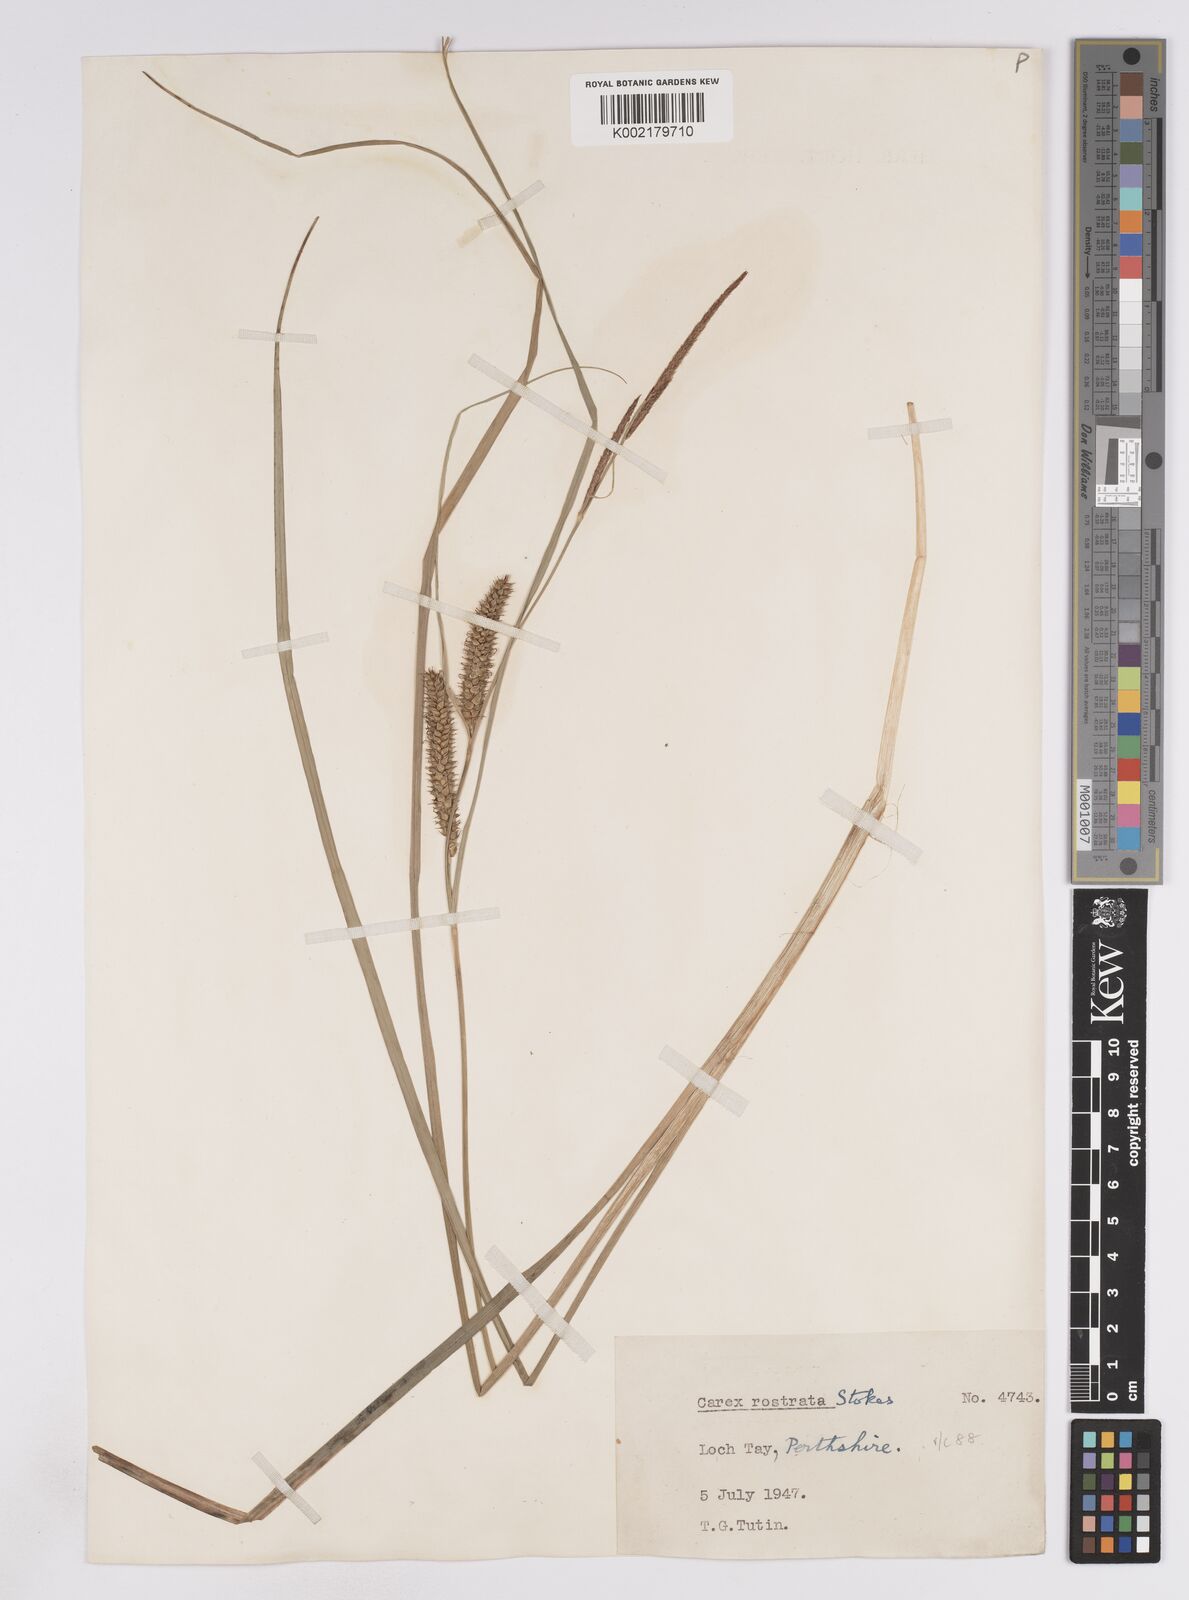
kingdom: Plantae
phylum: Tracheophyta
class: Liliopsida
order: Poales
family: Cyperaceae
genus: Carex
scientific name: Carex rostrata
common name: Bottle sedge
